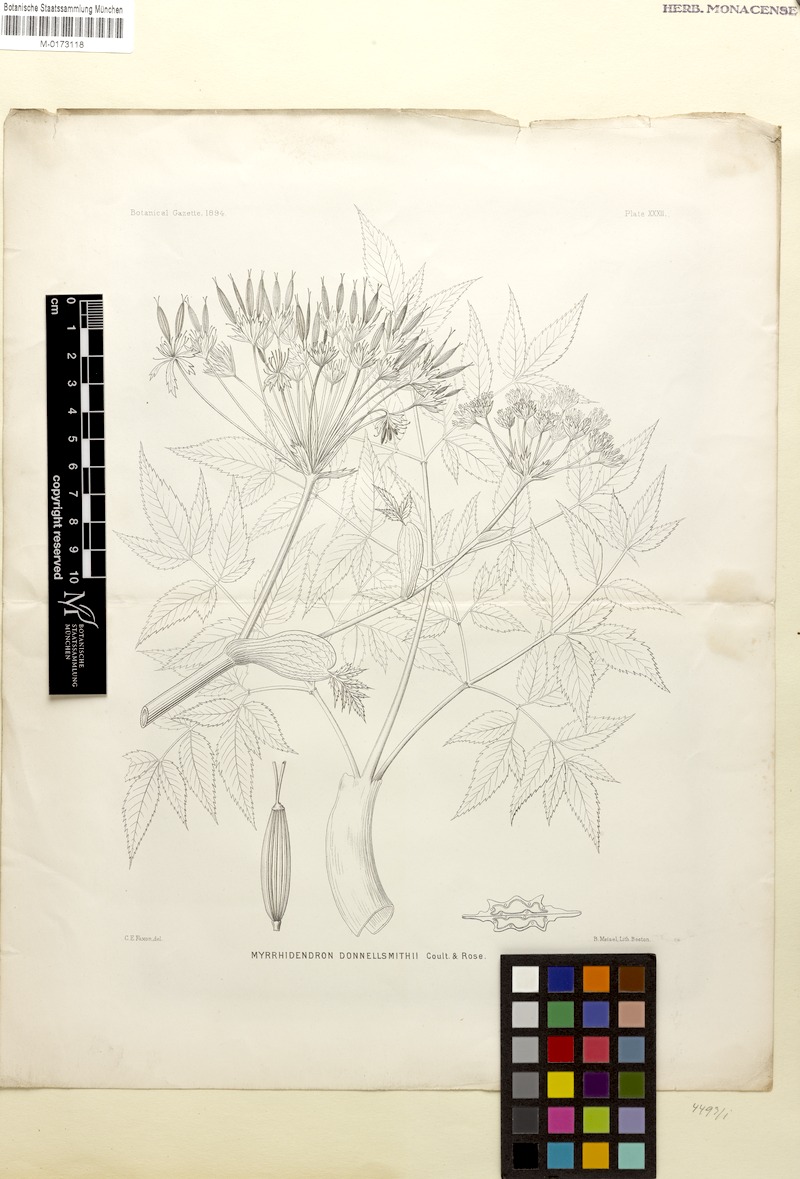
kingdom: Plantae
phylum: Tracheophyta
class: Magnoliopsida
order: Apiales
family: Apiaceae
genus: Myrrhidendron
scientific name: Myrrhidendron donnellsmithii
